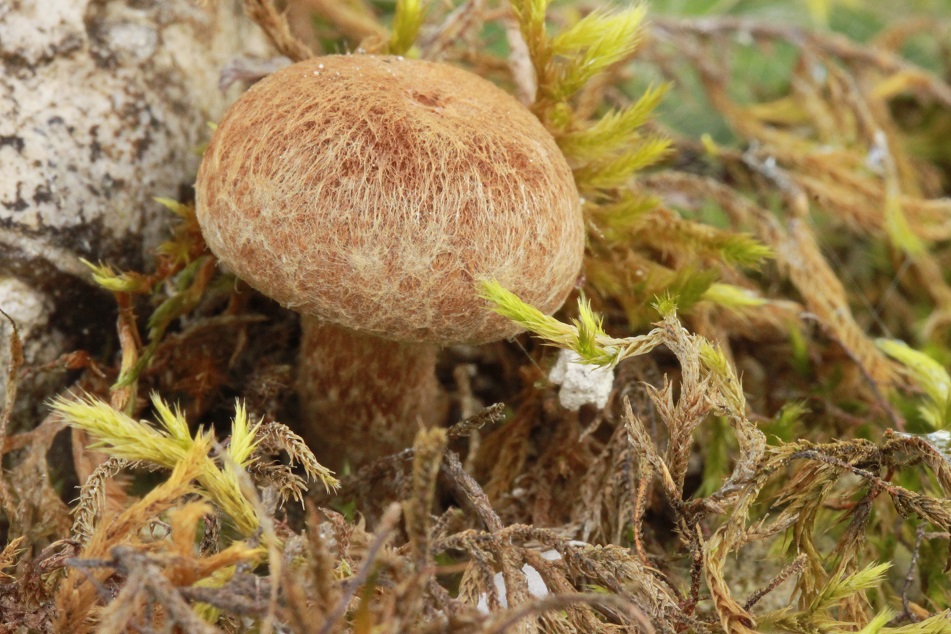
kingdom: Fungi
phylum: Basidiomycota
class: Agaricomycetes
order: Agaricales
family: Inocybaceae
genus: Mallocybe
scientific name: Mallocybe
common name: Trævlhat
